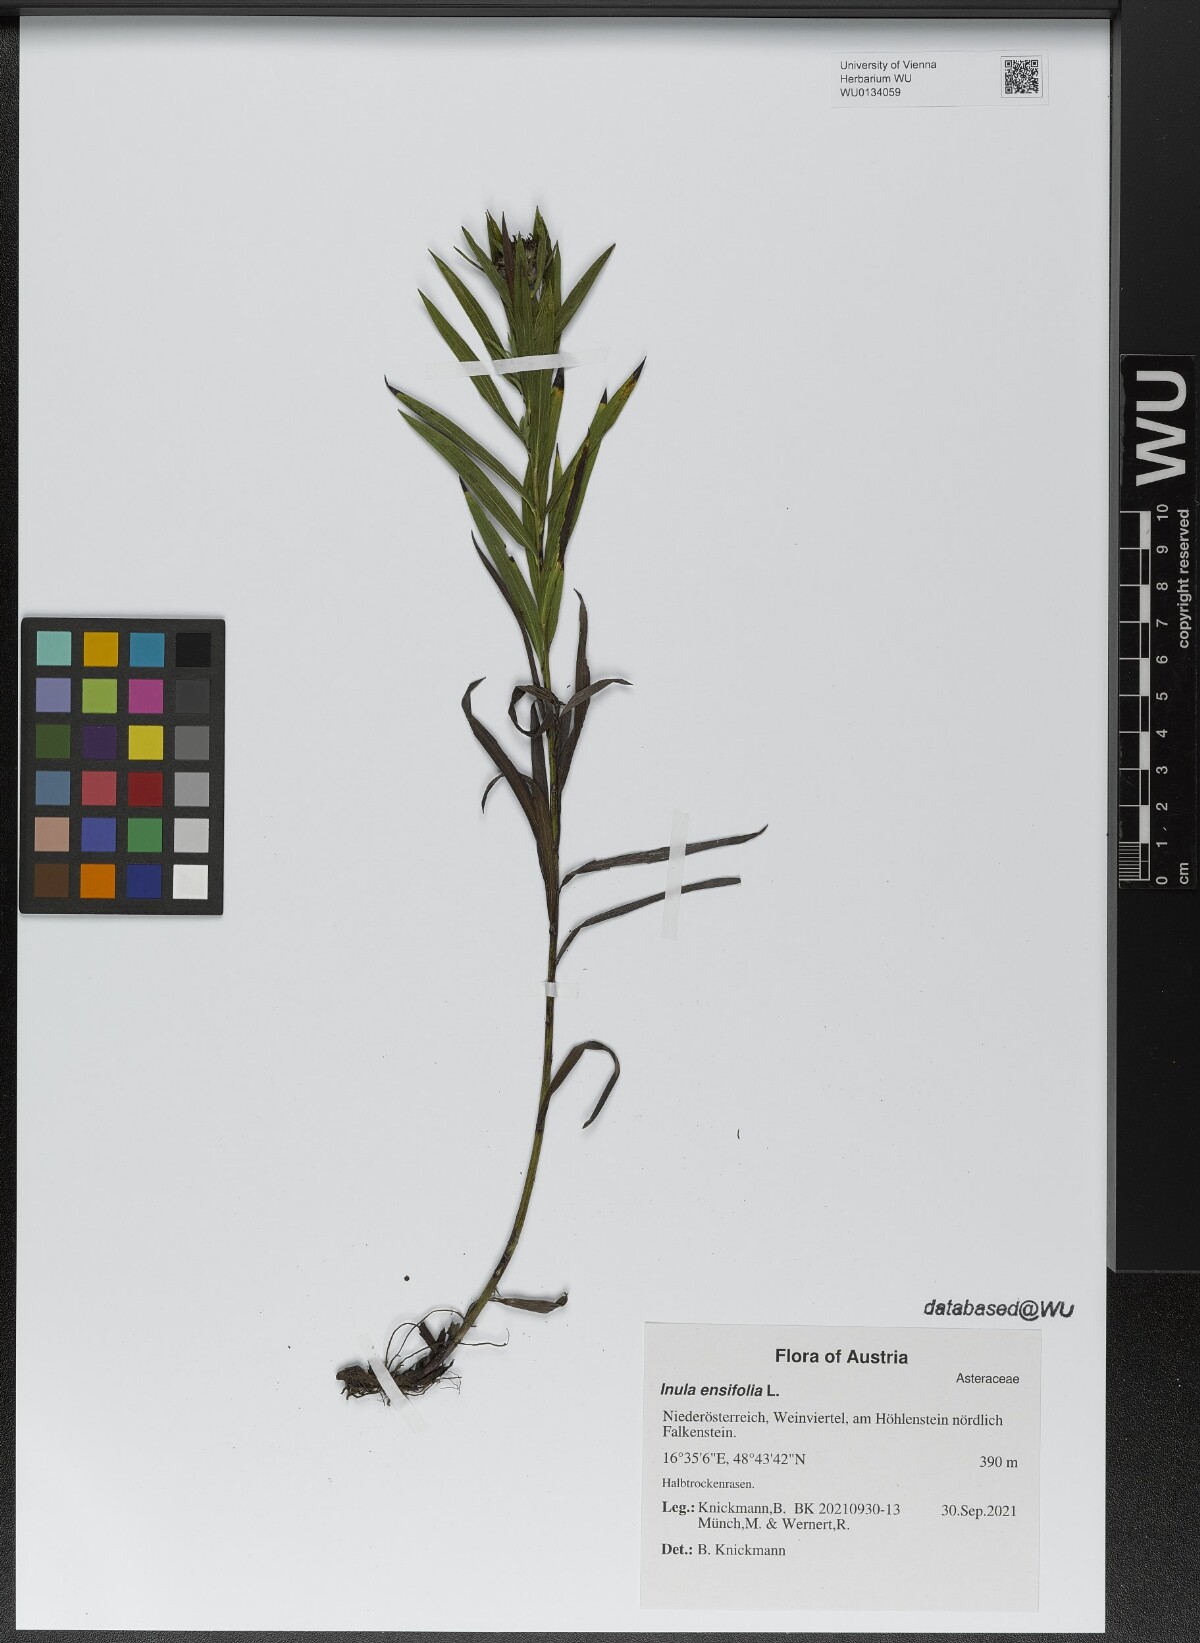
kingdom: Plantae
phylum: Tracheophyta
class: Magnoliopsida
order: Asterales
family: Asteraceae
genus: Pentanema
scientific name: Pentanema ensifolium
